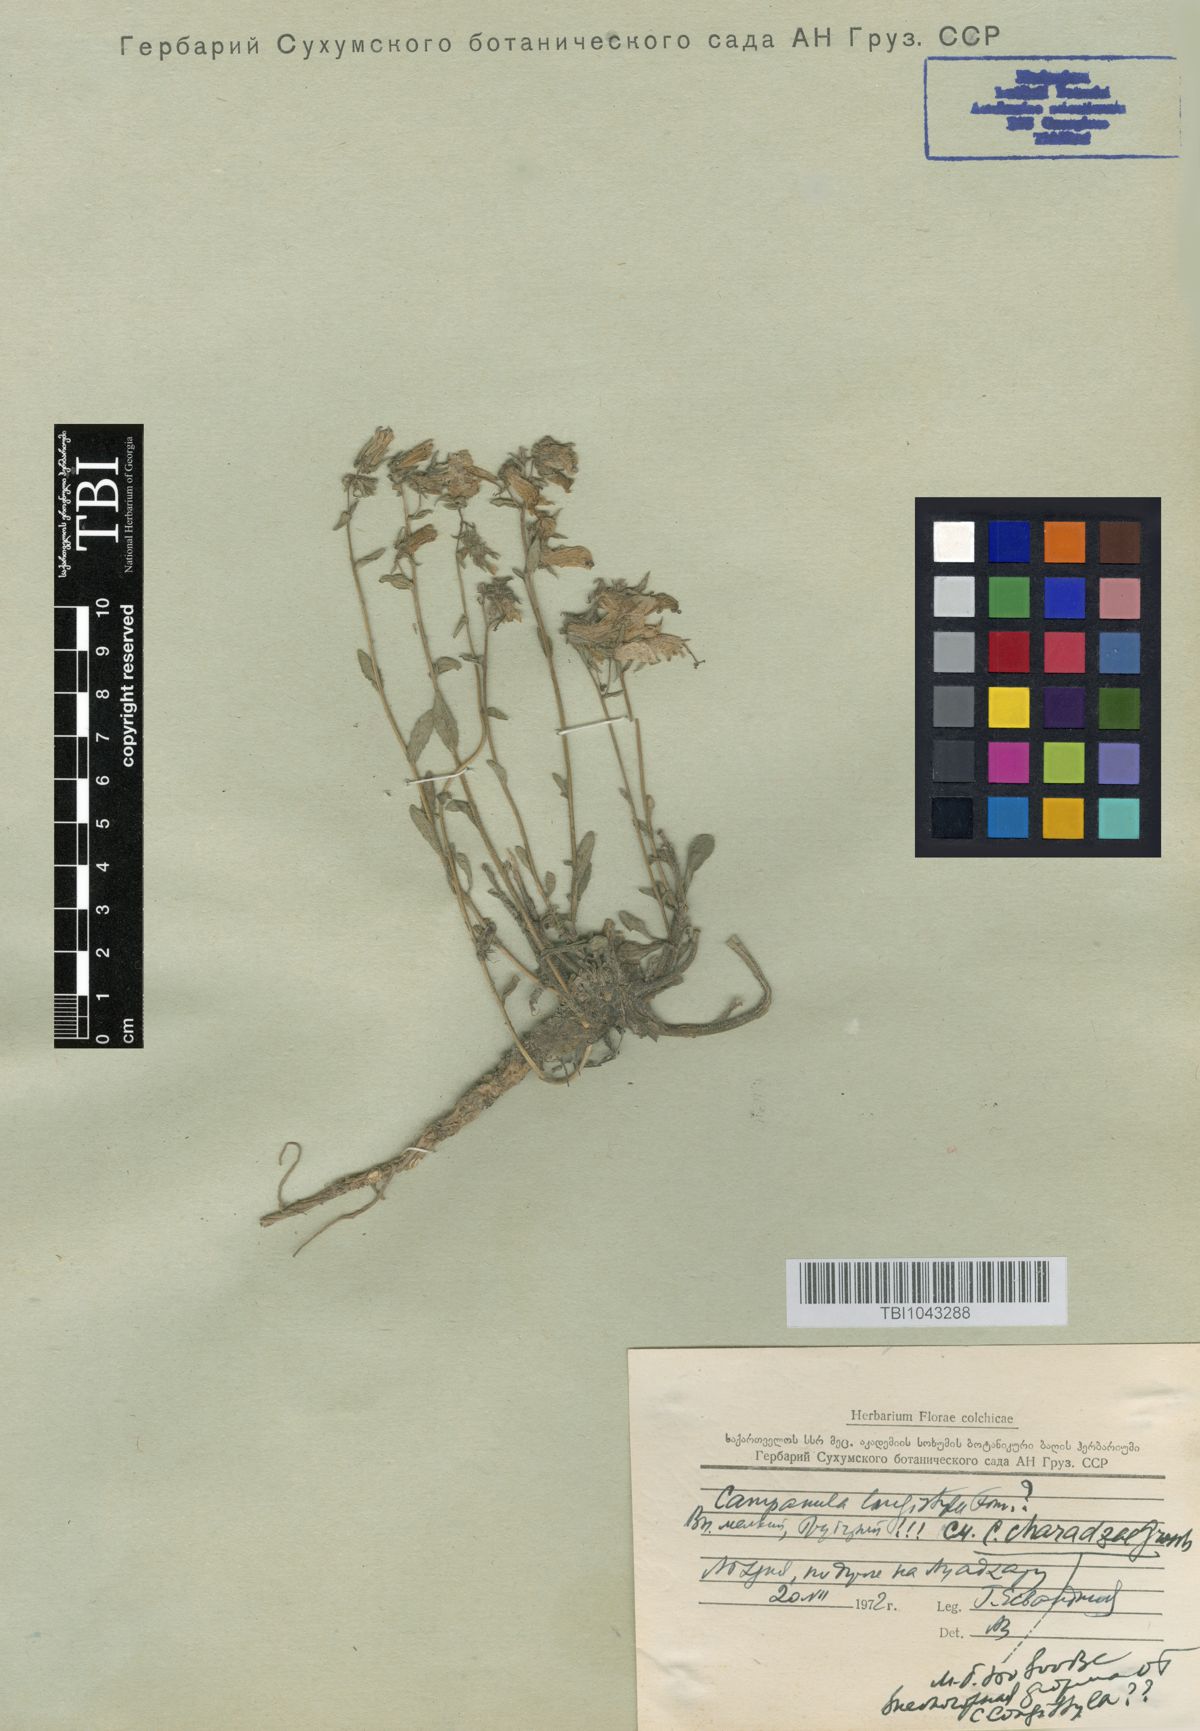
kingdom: Plantae
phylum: Tracheophyta
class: Magnoliopsida
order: Asterales
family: Campanulaceae
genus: Campanula
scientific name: Campanula sibirica
